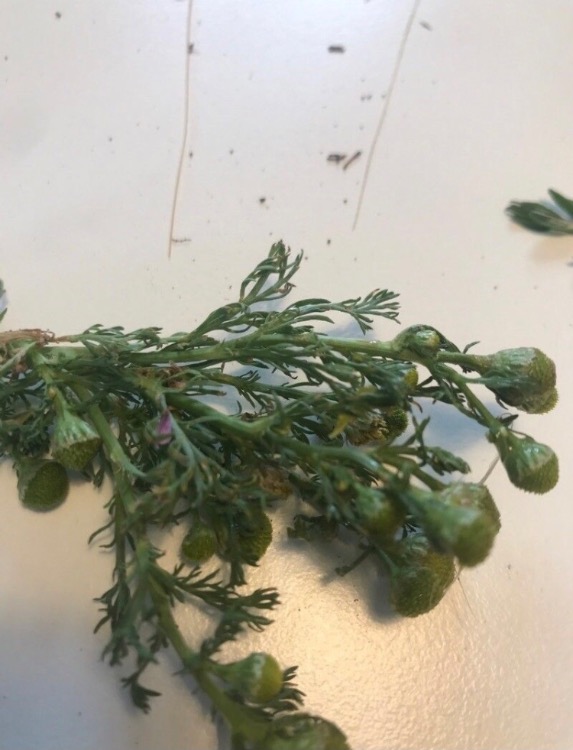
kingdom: Plantae
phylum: Tracheophyta
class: Magnoliopsida
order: Asterales
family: Asteraceae
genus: Matricaria
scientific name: Matricaria discoidea
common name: Skive-kamille
